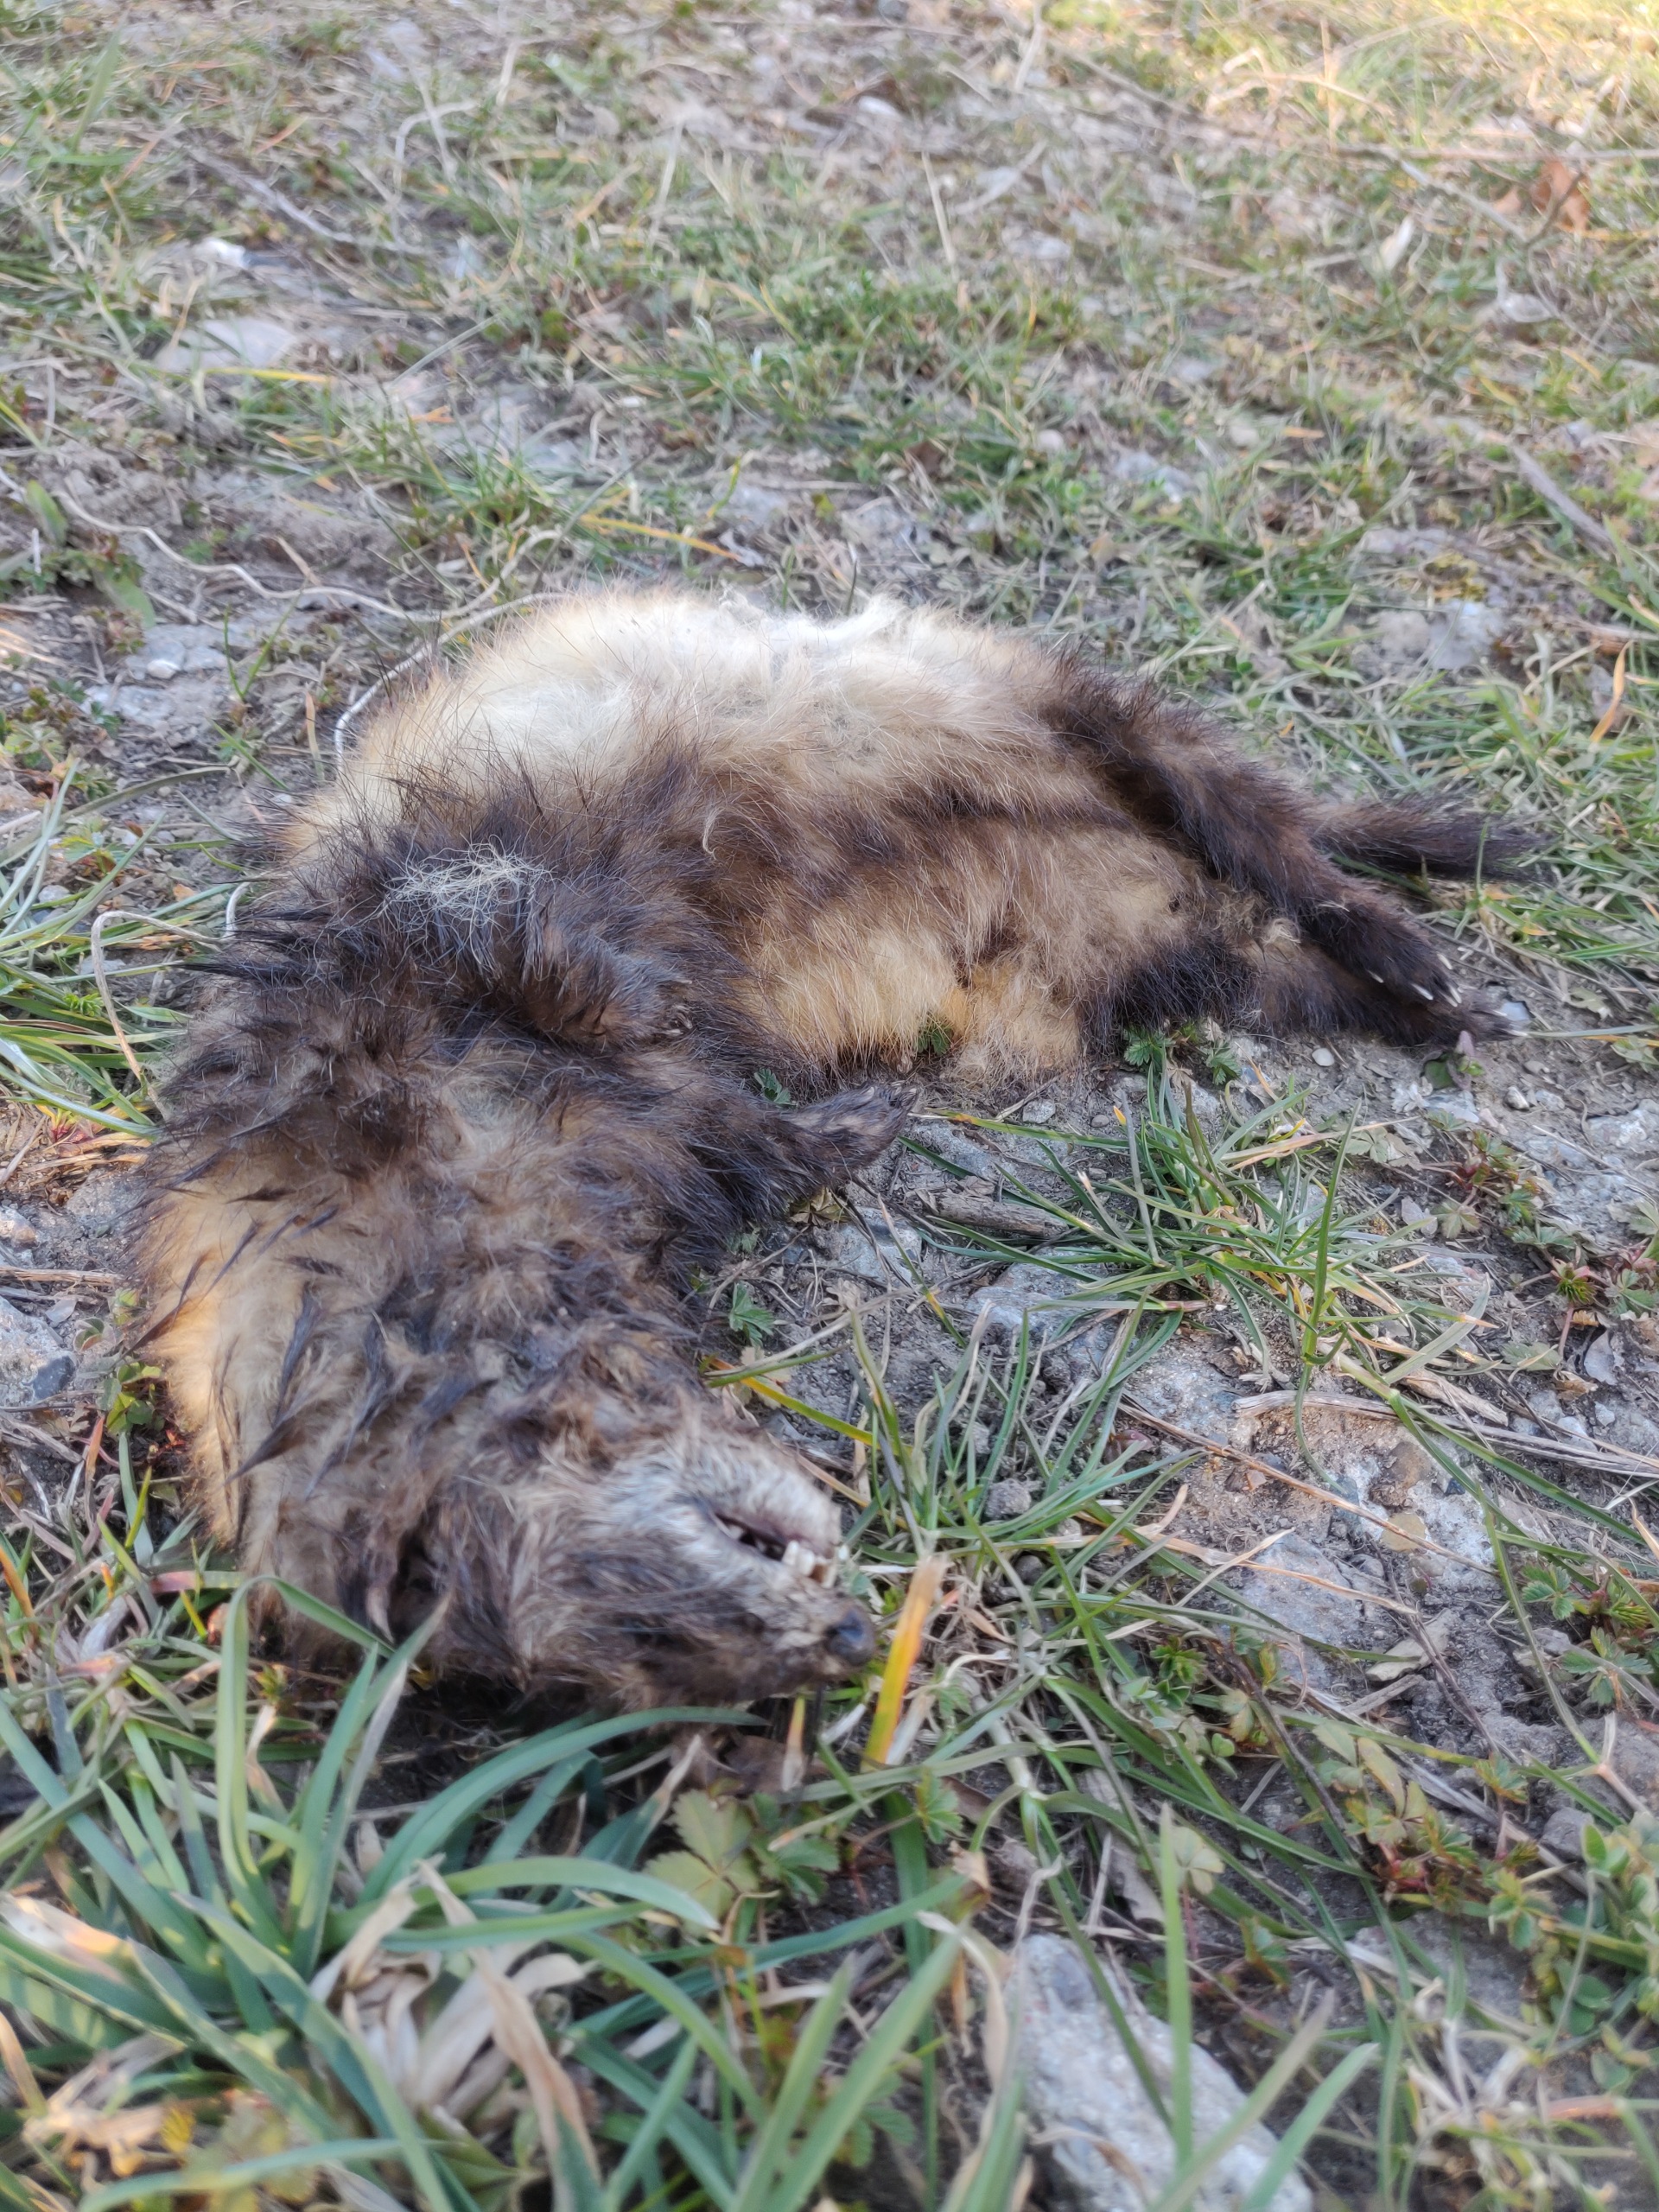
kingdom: Animalia
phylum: Chordata
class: Mammalia
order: Carnivora
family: Mustelidae
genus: Mustela
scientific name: Mustela putorius
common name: Ilder
